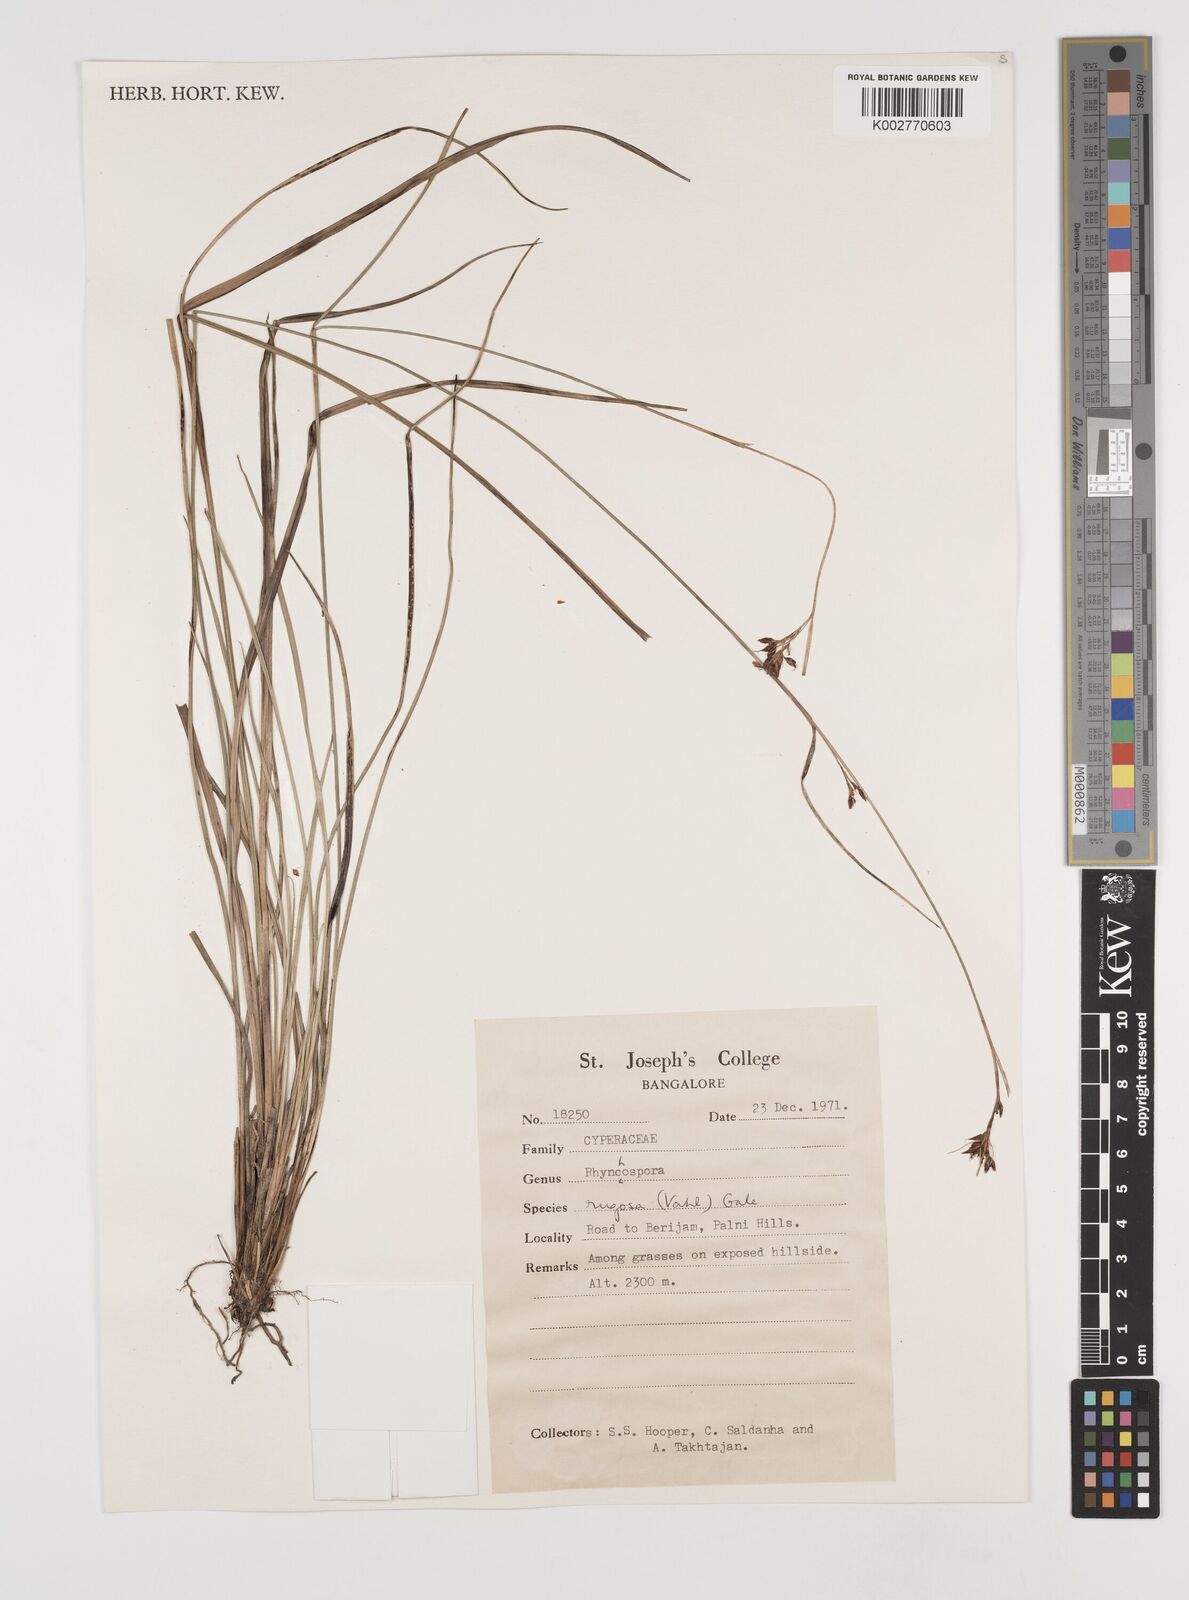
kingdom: Plantae
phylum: Tracheophyta
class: Liliopsida
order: Poales
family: Cyperaceae
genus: Rhynchospora
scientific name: Rhynchospora rugosa
